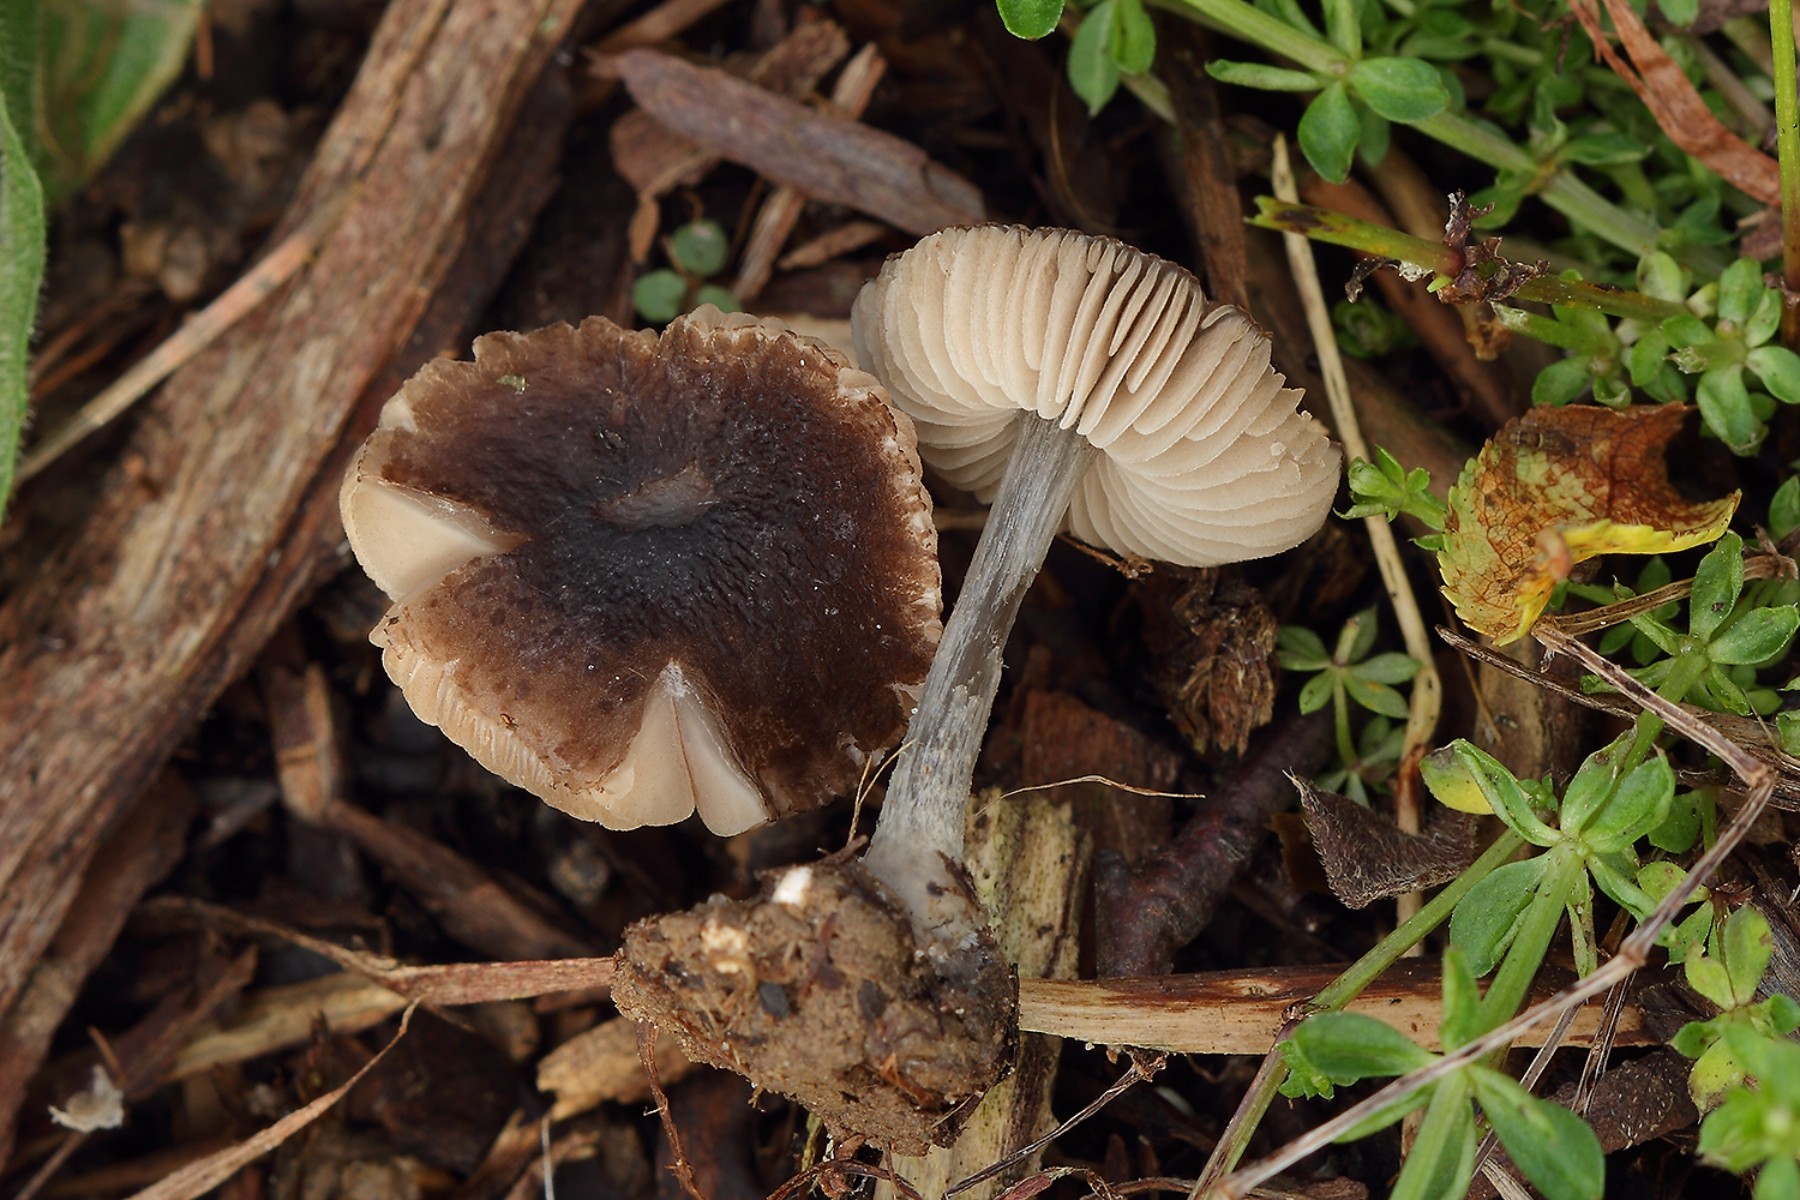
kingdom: Fungi
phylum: Basidiomycota
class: Agaricomycetes
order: Agaricales
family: Pluteaceae
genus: Pluteus
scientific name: Pluteus chrysophaeus
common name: blåfodet skærmhat
